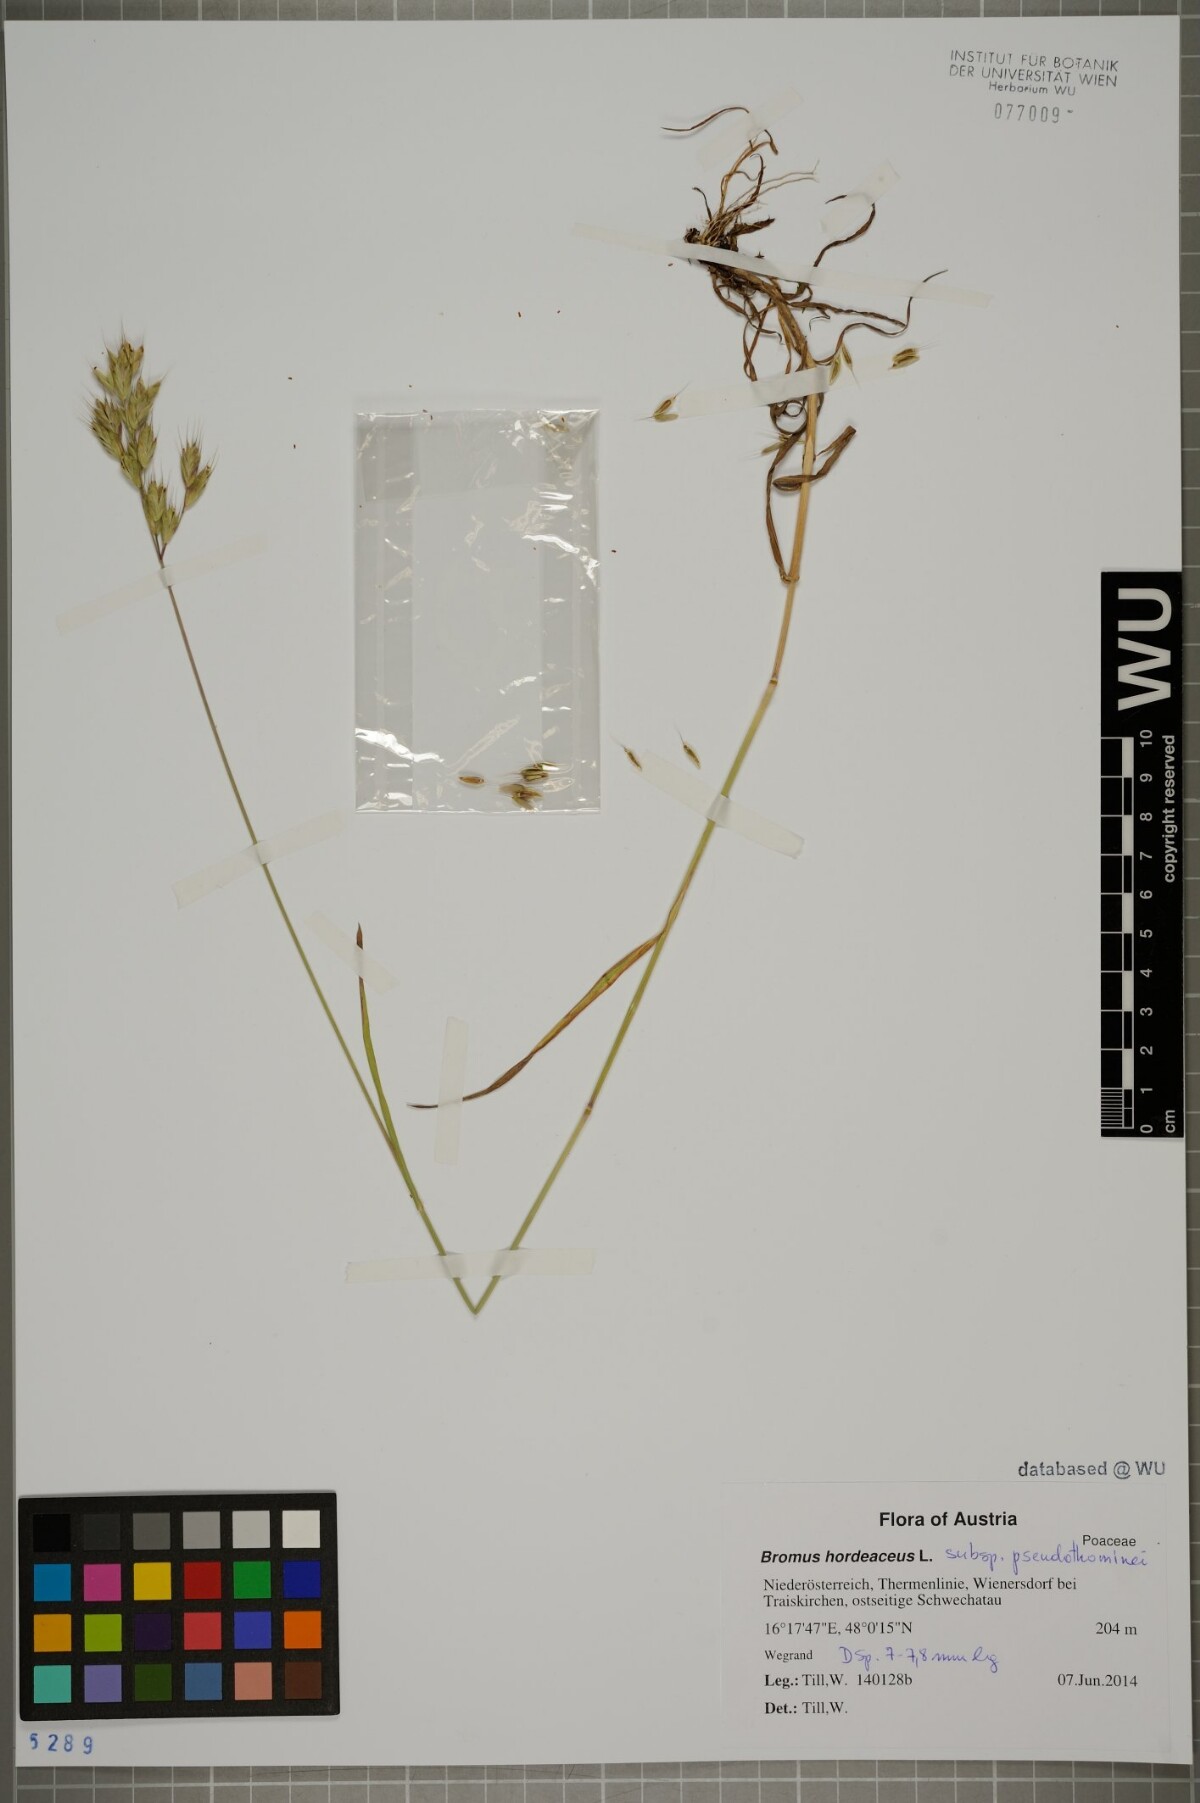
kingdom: Plantae
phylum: Tracheophyta
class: Liliopsida
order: Poales
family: Poaceae
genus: Bromus
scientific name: Bromus ferronii
